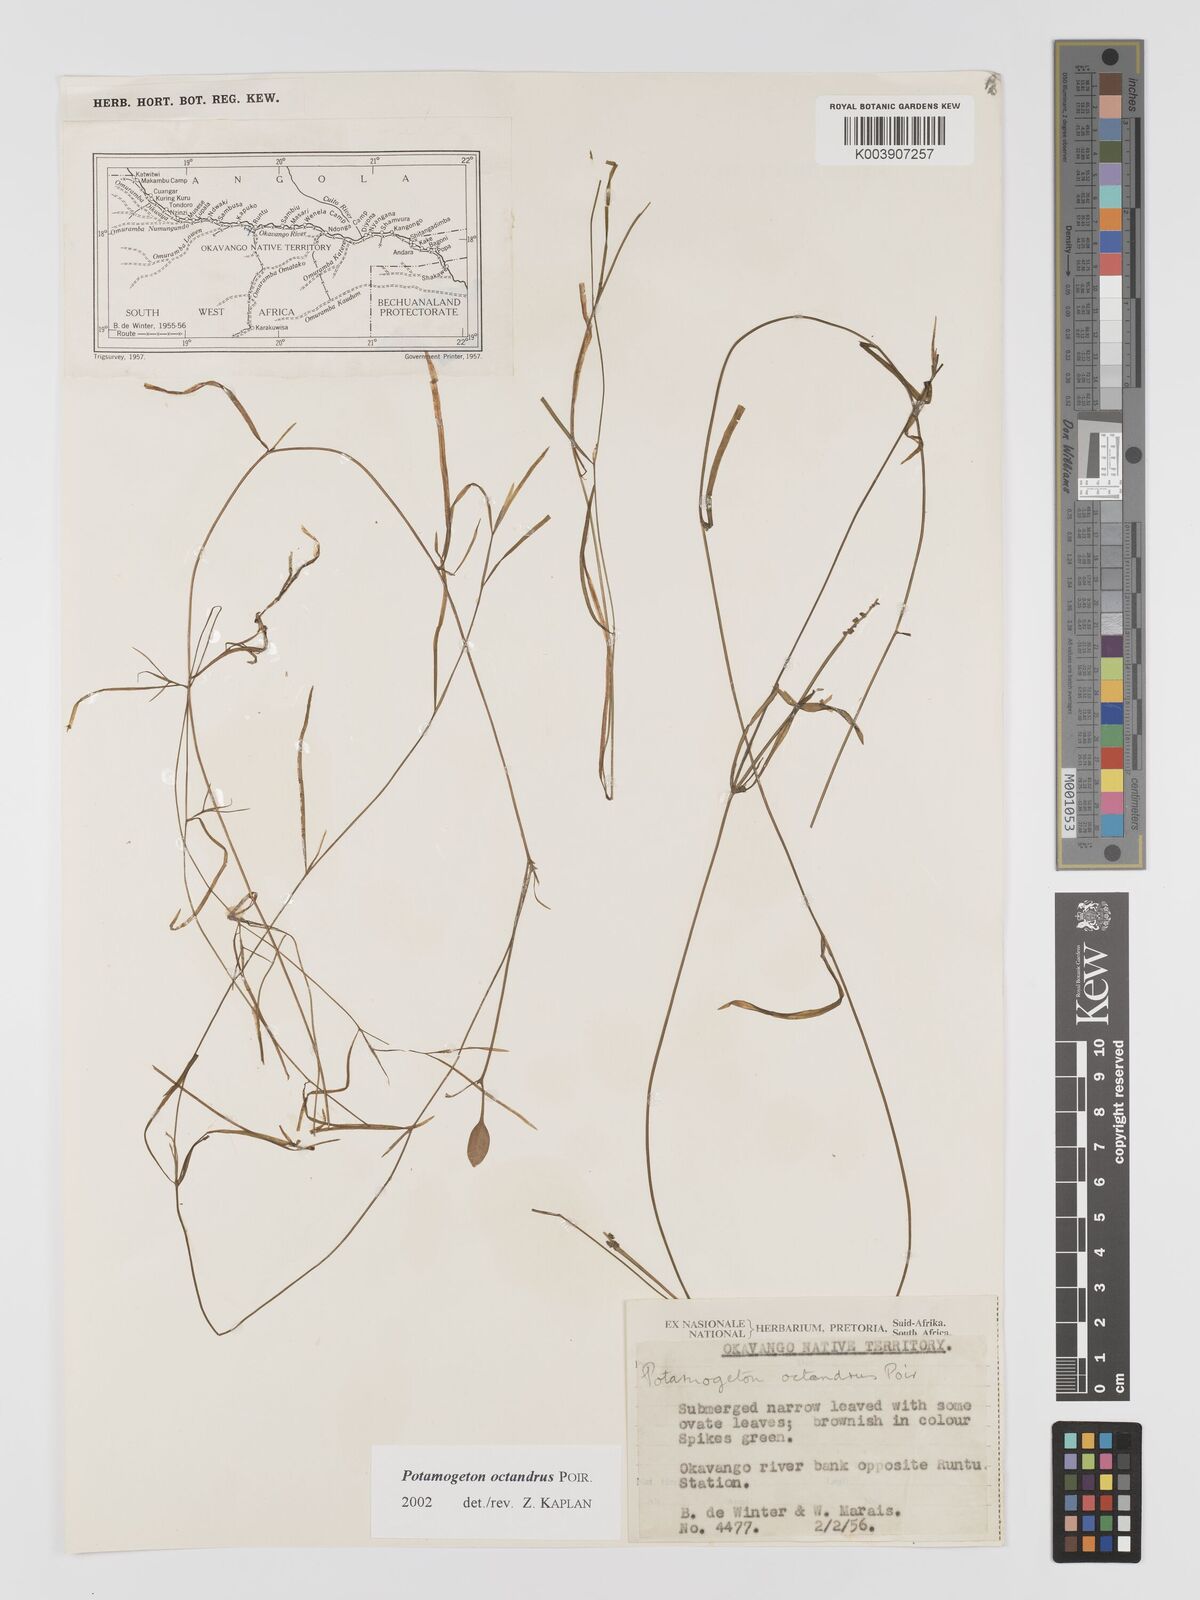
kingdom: Plantae
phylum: Tracheophyta
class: Liliopsida
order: Alismatales
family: Potamogetonaceae
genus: Potamogeton
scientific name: Potamogeton tenuicaulis
